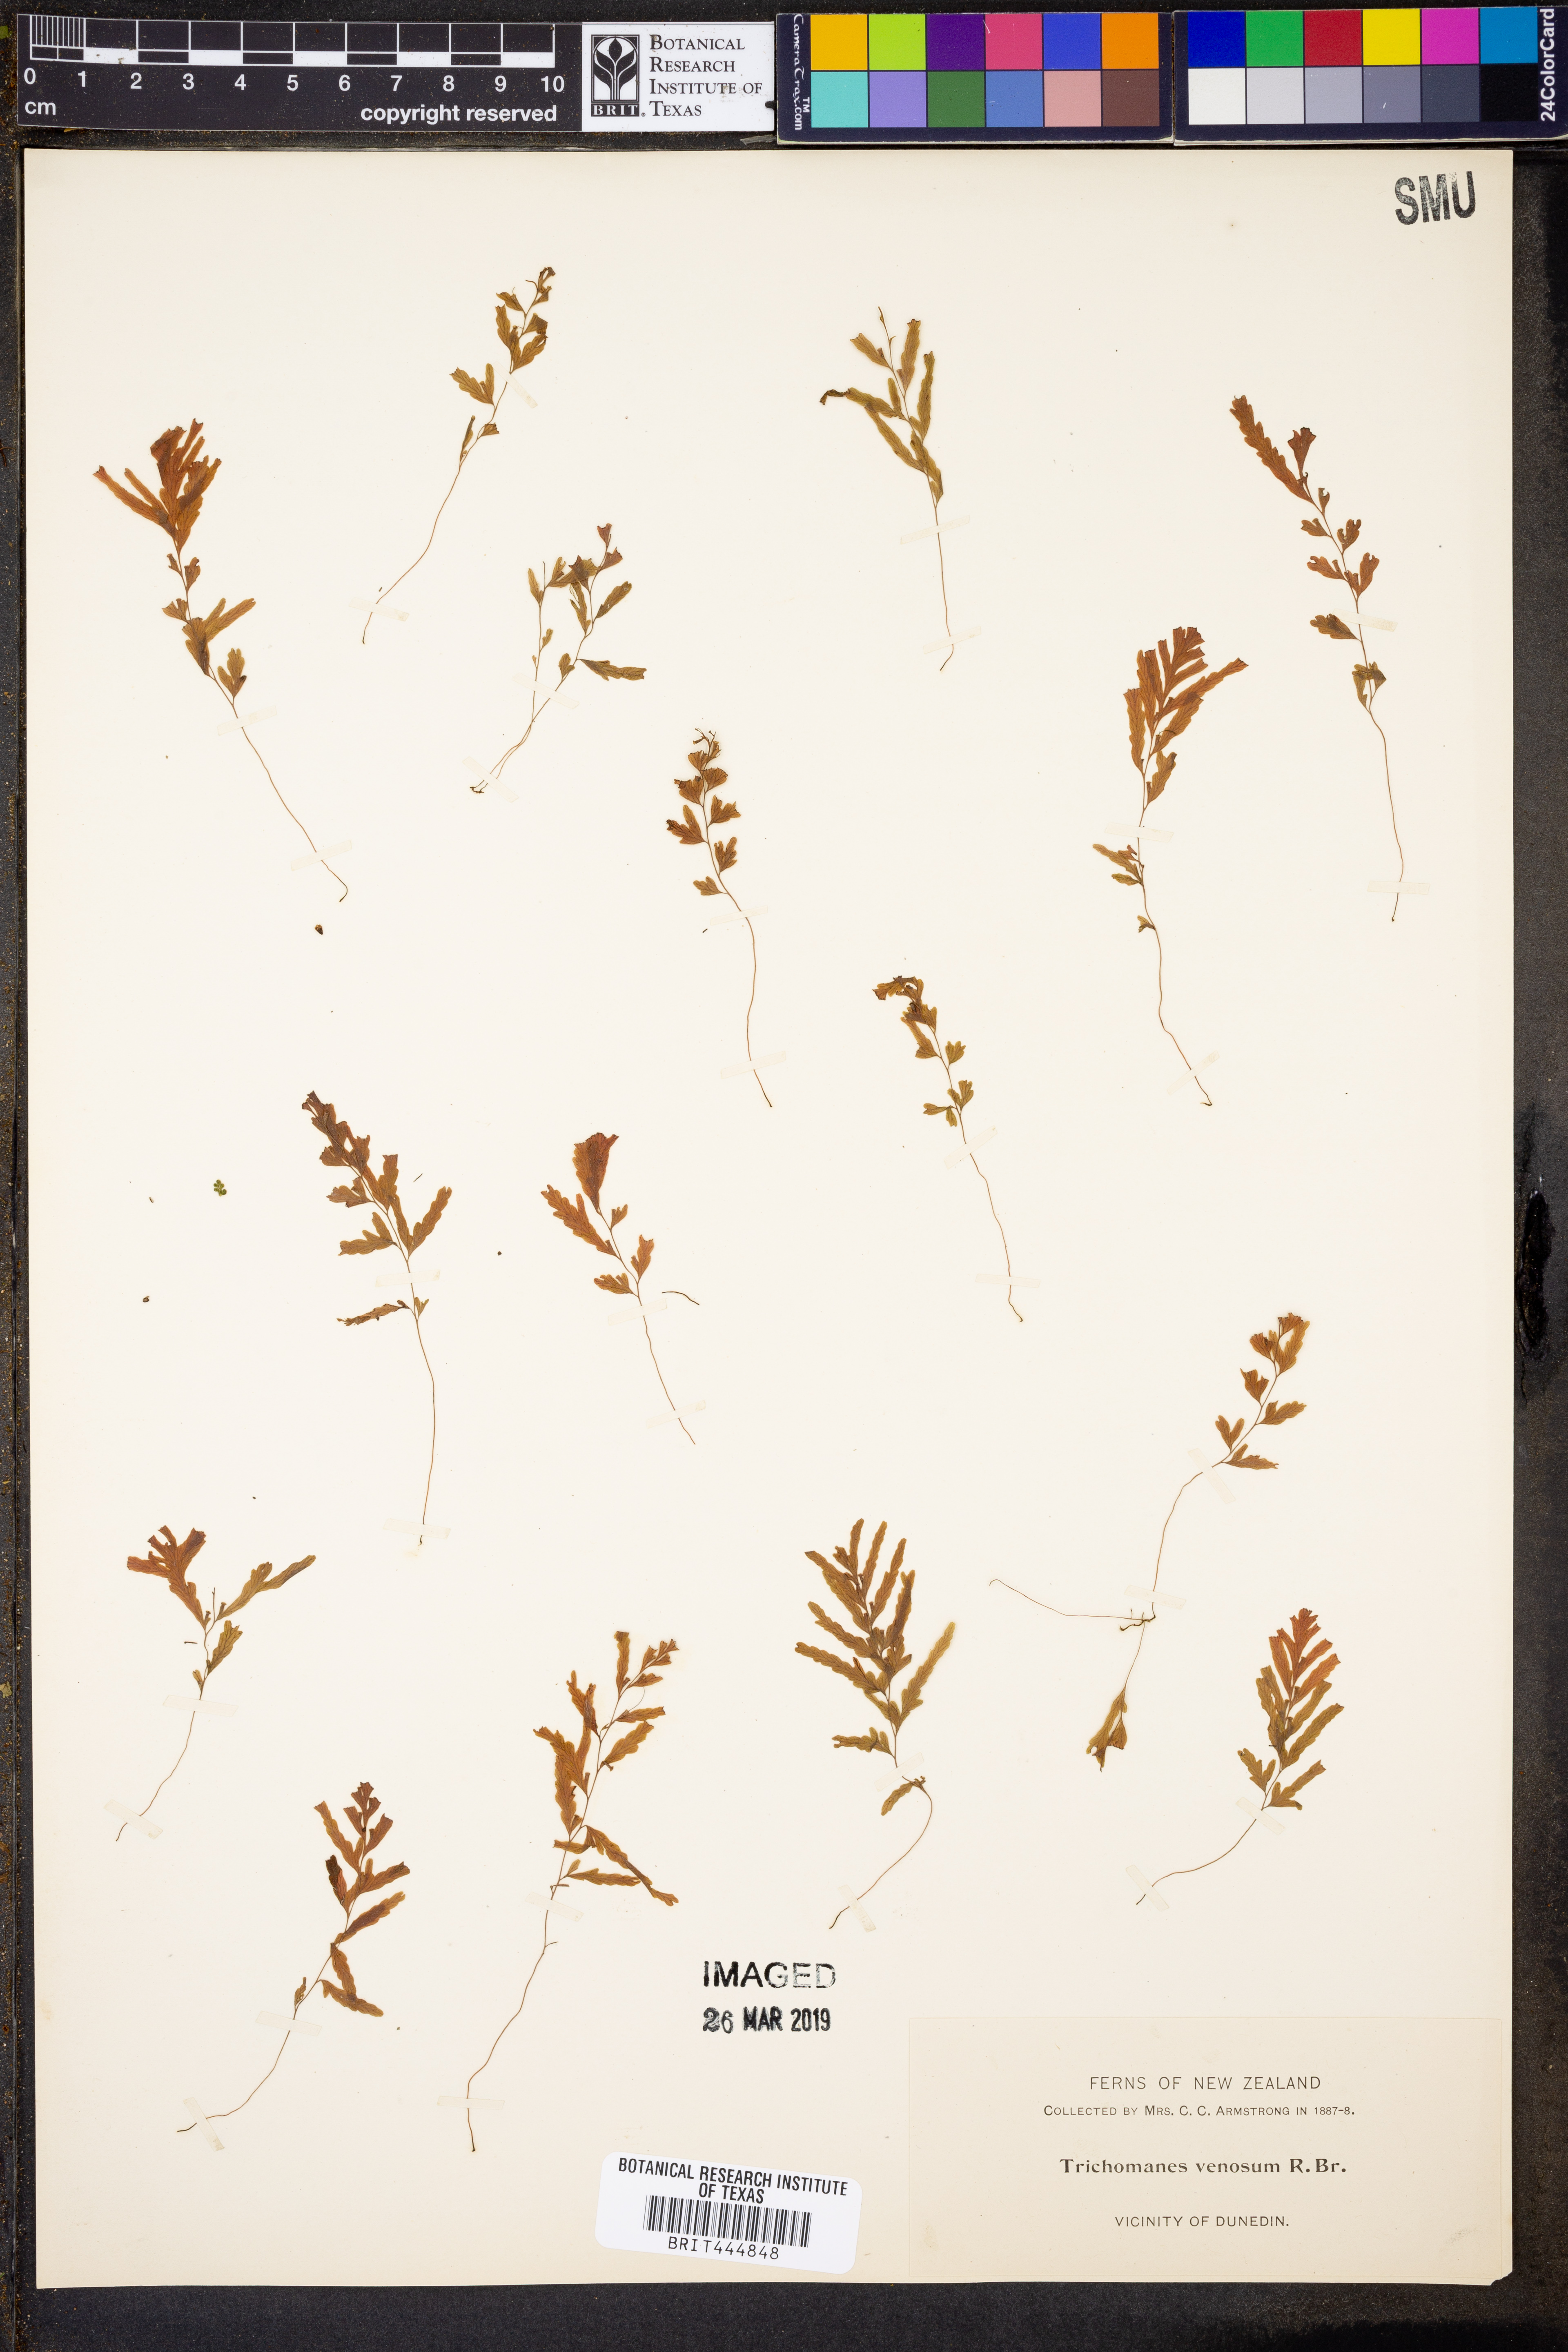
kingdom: Plantae
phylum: Tracheophyta
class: Polypodiopsida
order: Hymenophyllales
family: Hymenophyllaceae
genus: Polyphlebium
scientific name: Polyphlebium venosum
